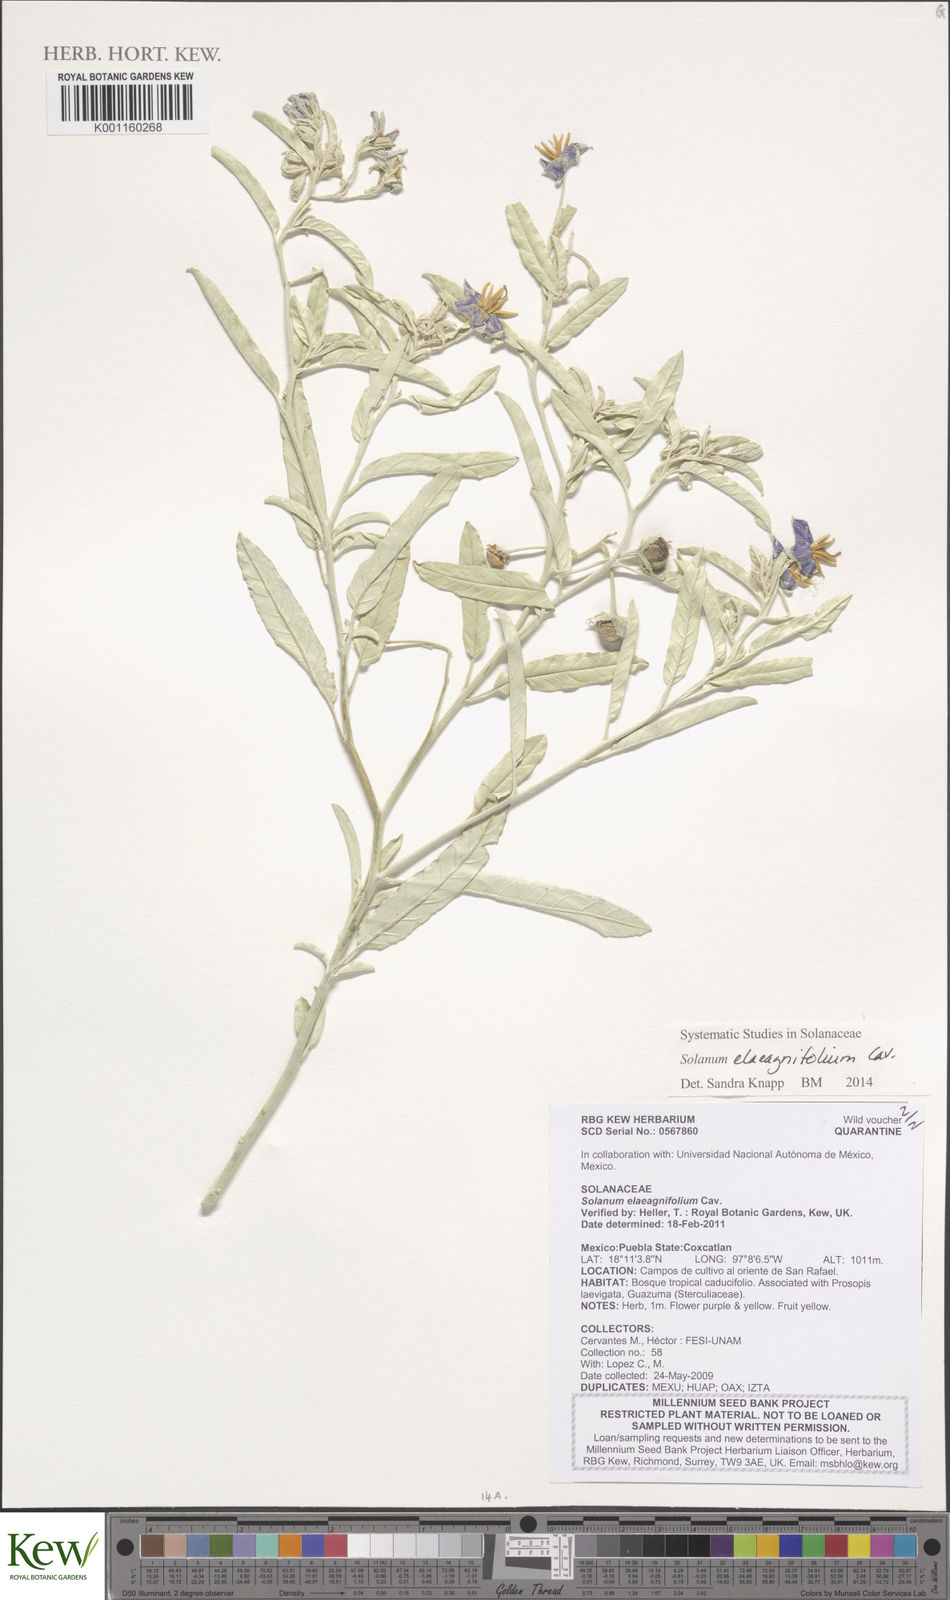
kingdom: Plantae
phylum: Tracheophyta
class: Magnoliopsida
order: Solanales
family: Solanaceae
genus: Solanum
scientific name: Solanum elaeagnifolium
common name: Silverleaf nightshade
